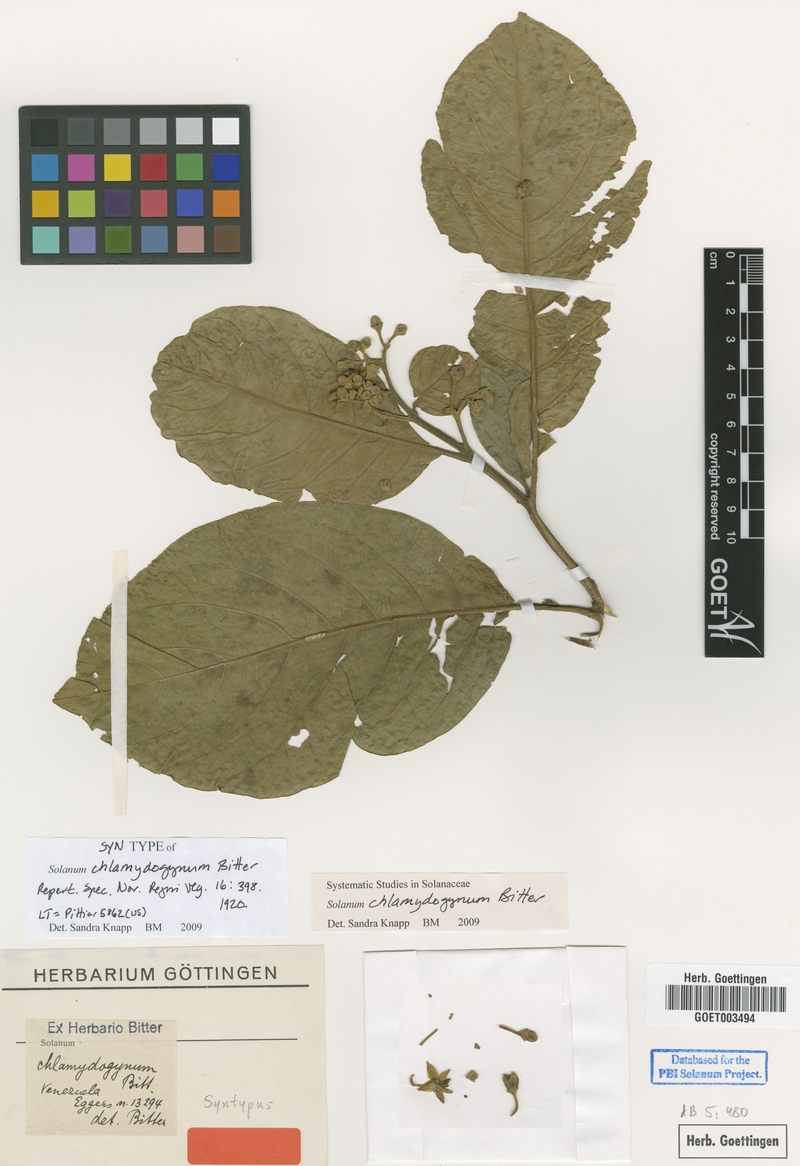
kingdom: Plantae
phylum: Tracheophyta
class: Magnoliopsida
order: Solanales
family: Solanaceae
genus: Solanum
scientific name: Solanum chlamydogynum
